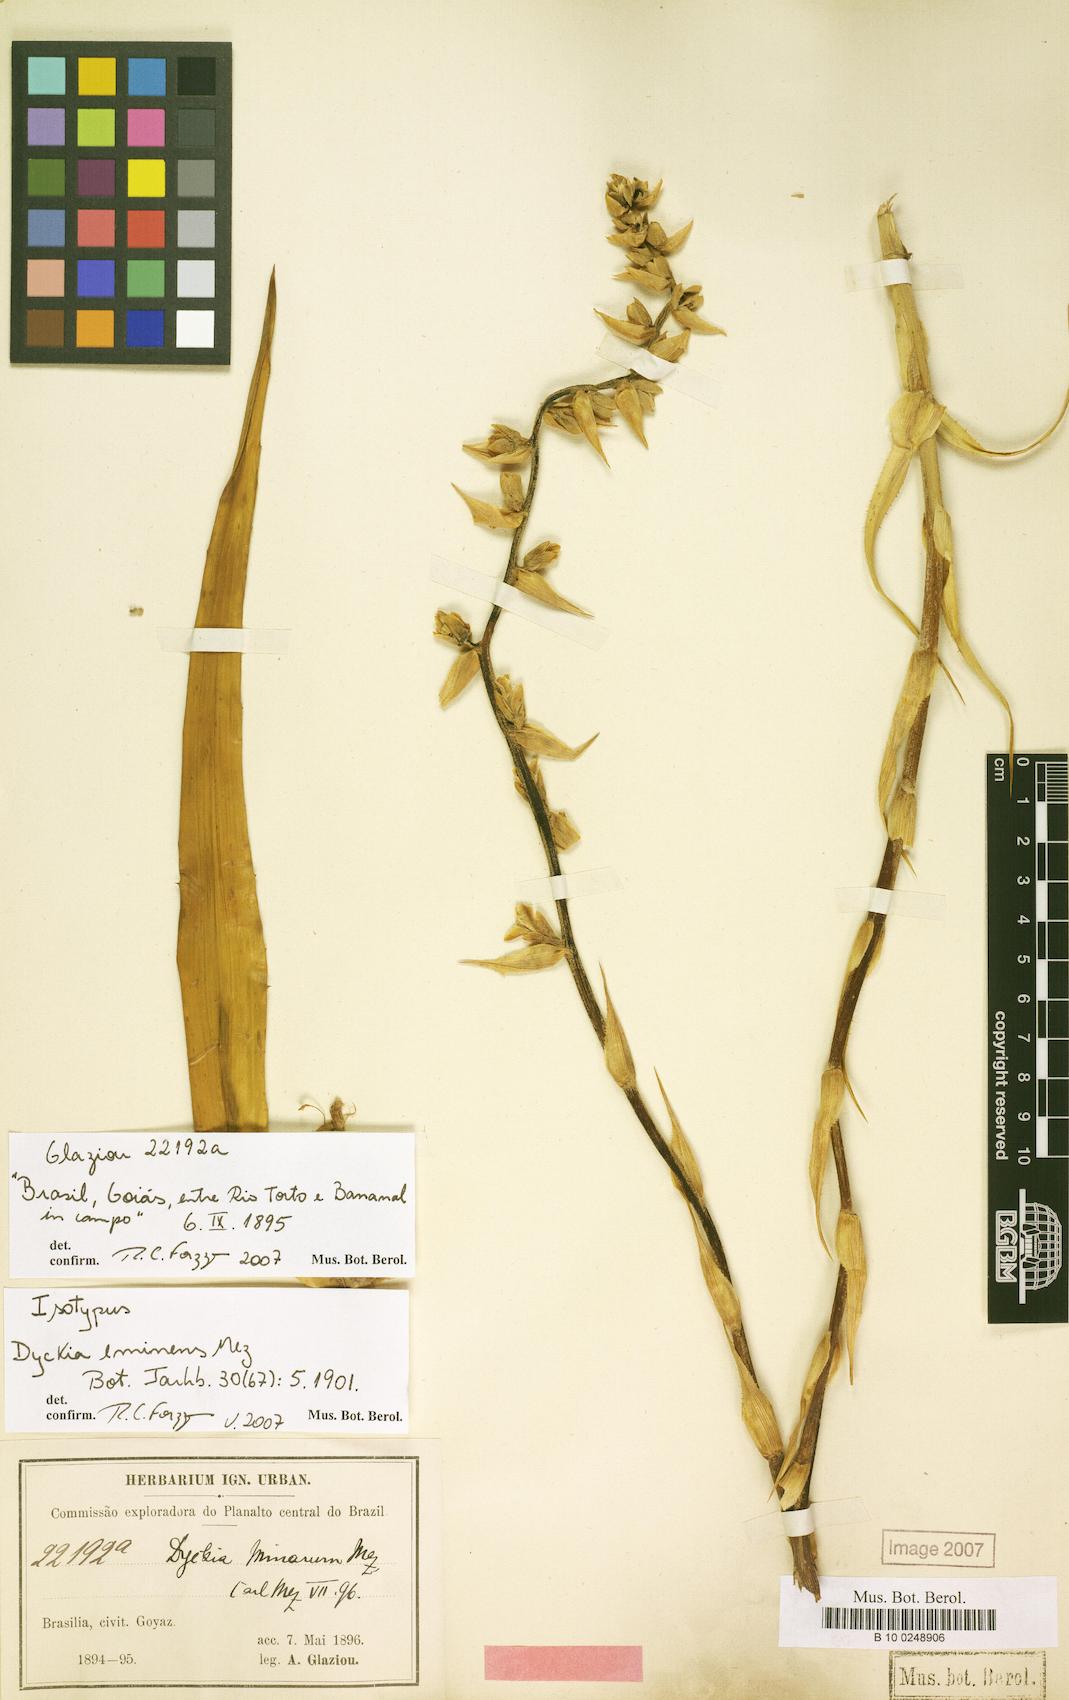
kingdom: Plantae
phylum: Tracheophyta
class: Liliopsida
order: Poales
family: Bromeliaceae
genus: Dyckia
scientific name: Dyckia eminens
